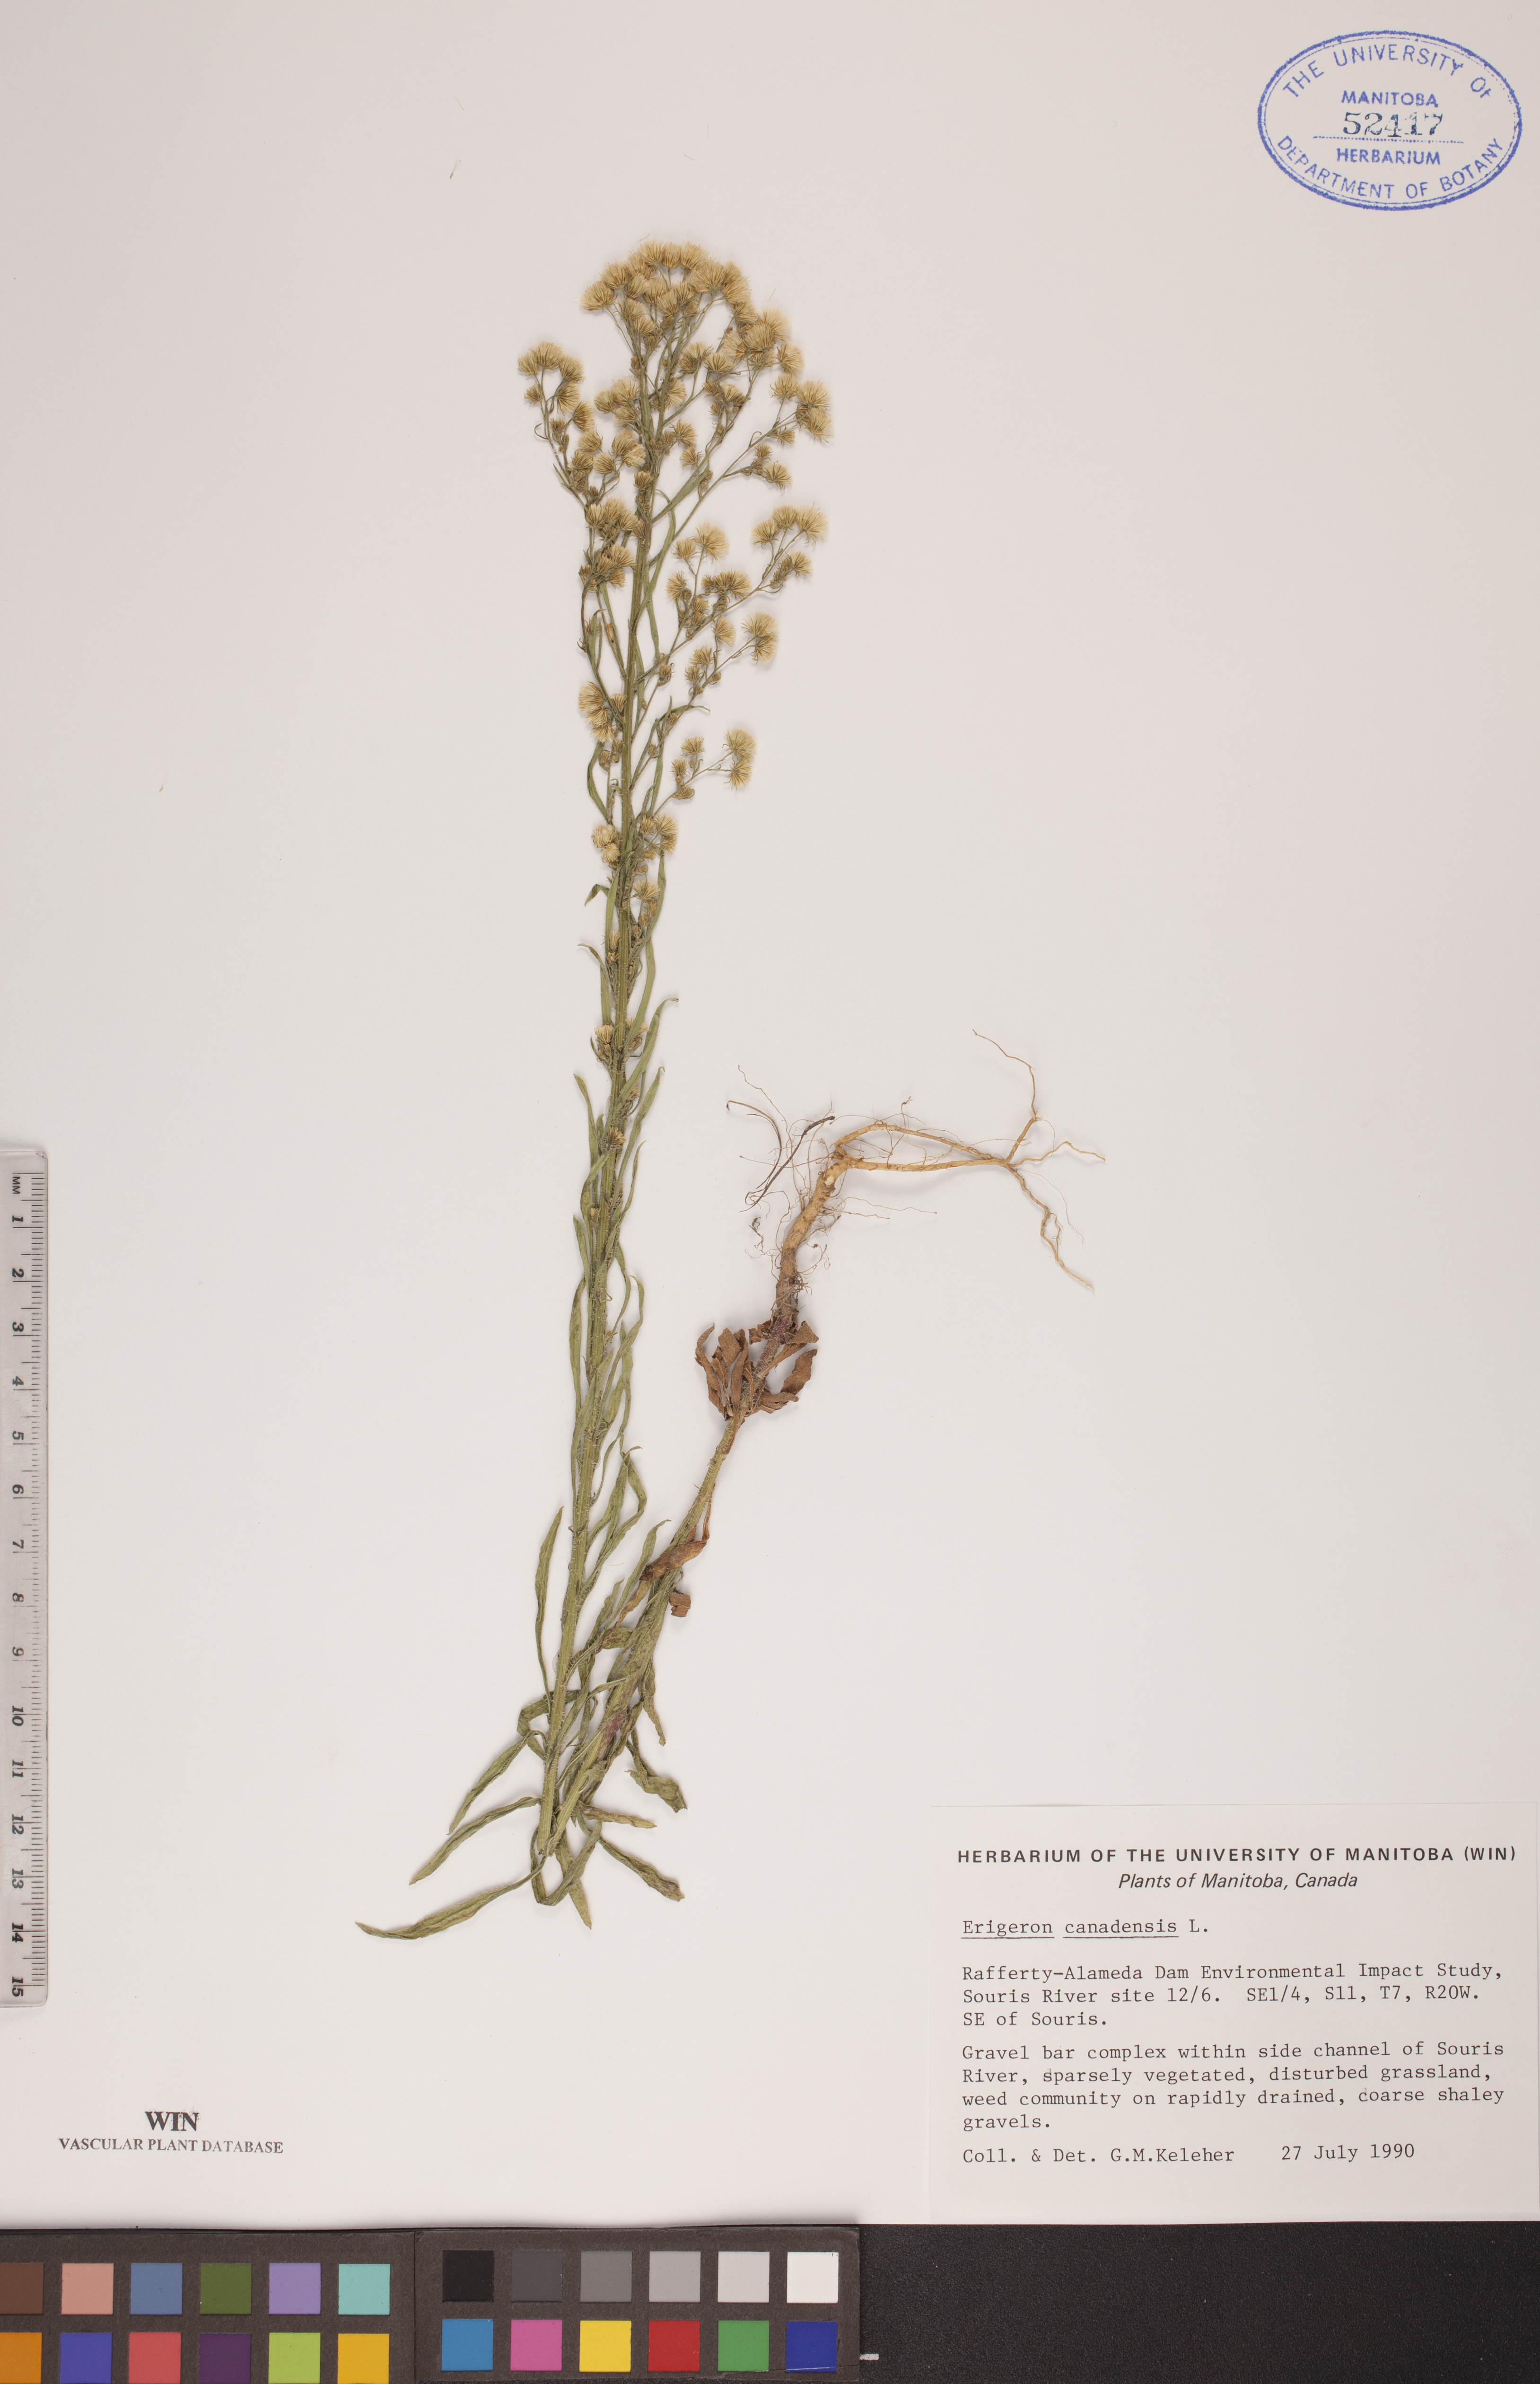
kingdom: Plantae
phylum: Tracheophyta
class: Magnoliopsida
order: Asterales
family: Asteraceae
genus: Erigeron
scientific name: Erigeron canadensis
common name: Canadian fleabane
